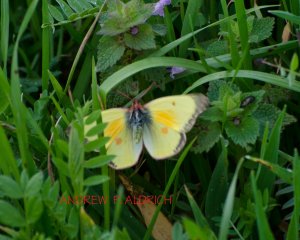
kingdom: Animalia
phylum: Arthropoda
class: Insecta
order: Lepidoptera
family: Pieridae
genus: Colias
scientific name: Colias eurytheme
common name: Orange Sulphur
